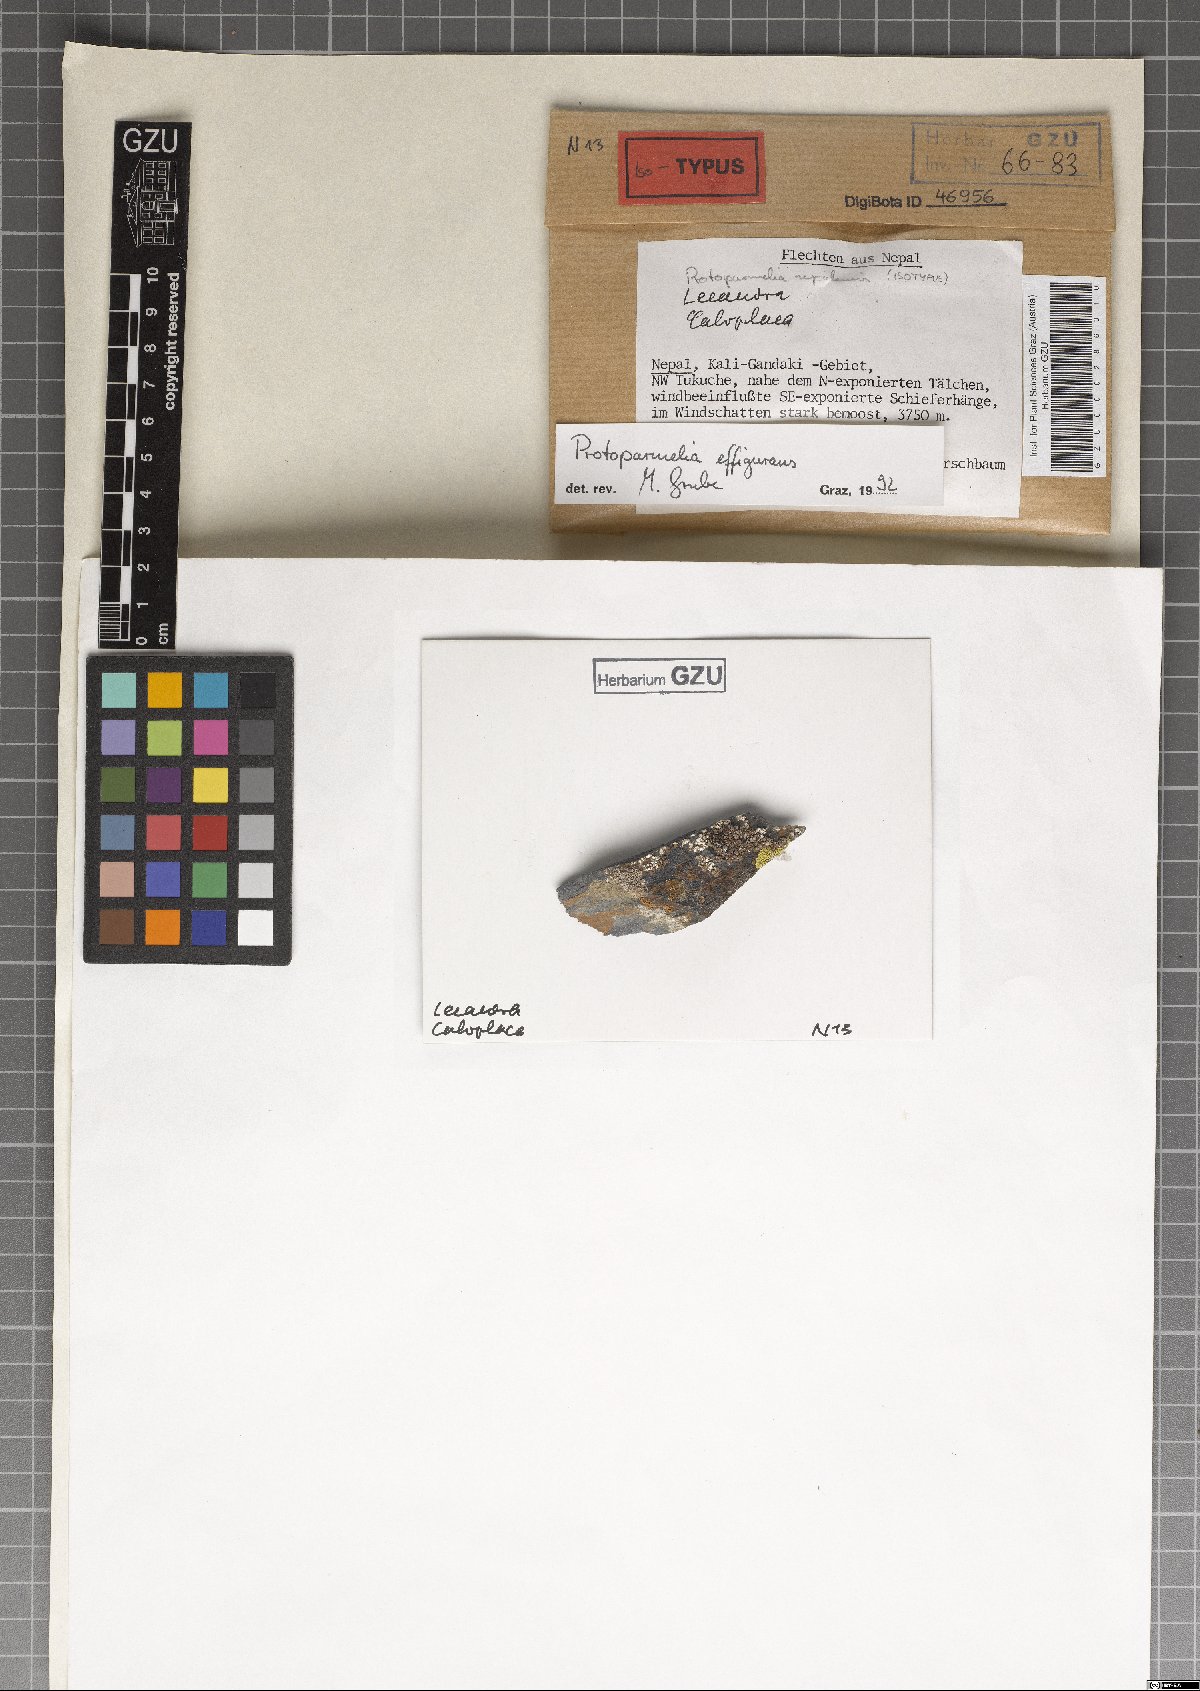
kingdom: Fungi
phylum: Ascomycota
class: Lecanoromycetes
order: Lecanorales
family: Parmeliaceae
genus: Protoparmelia
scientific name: Protoparmelia effigurans
